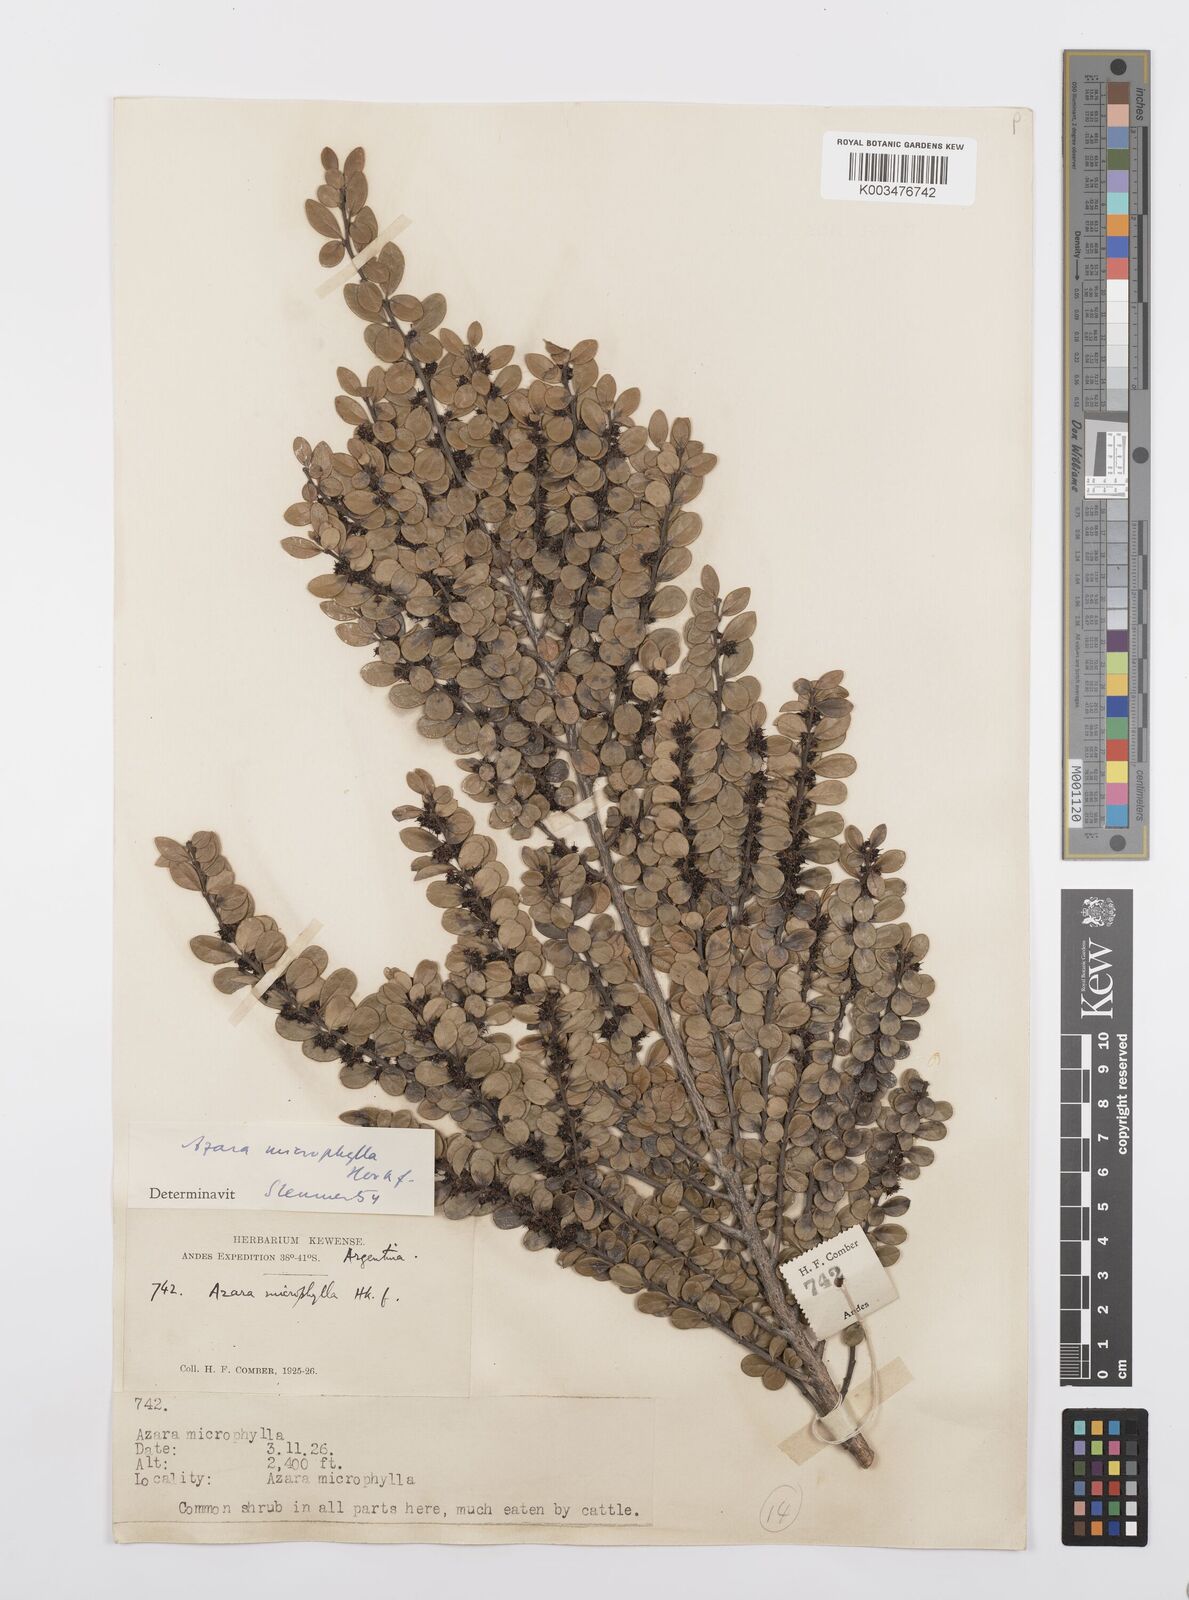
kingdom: Plantae
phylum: Tracheophyta
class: Magnoliopsida
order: Malpighiales
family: Salicaceae
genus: Azara
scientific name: Azara microphylla
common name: Box-leaf azara
